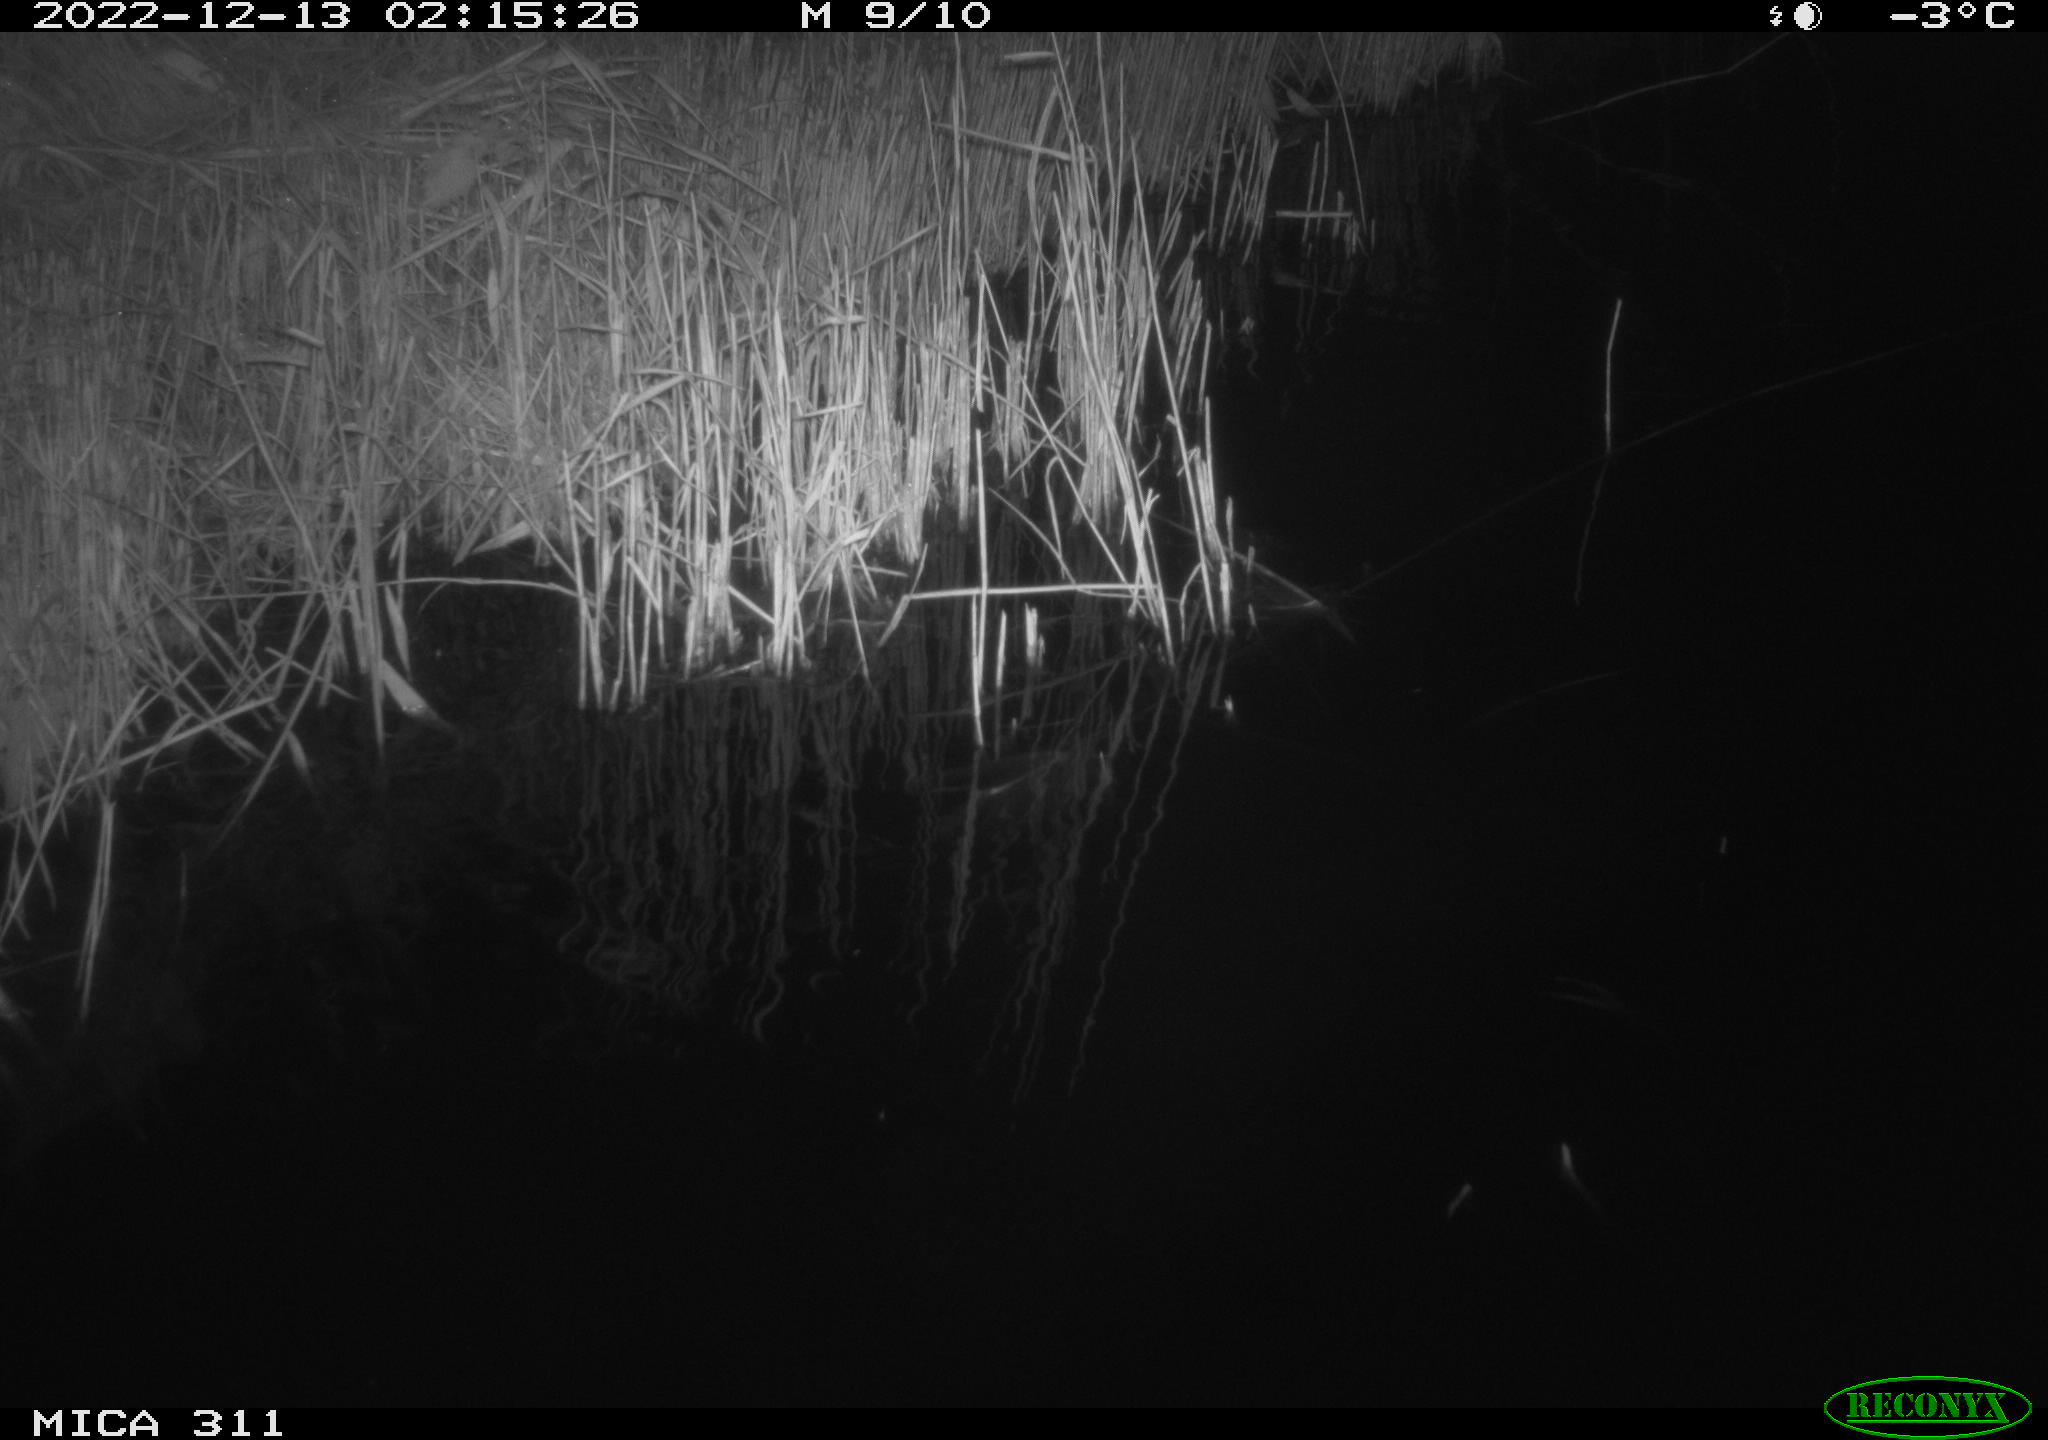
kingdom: Animalia
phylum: Chordata
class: Aves
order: Anseriformes
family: Anatidae
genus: Anas
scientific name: Anas
